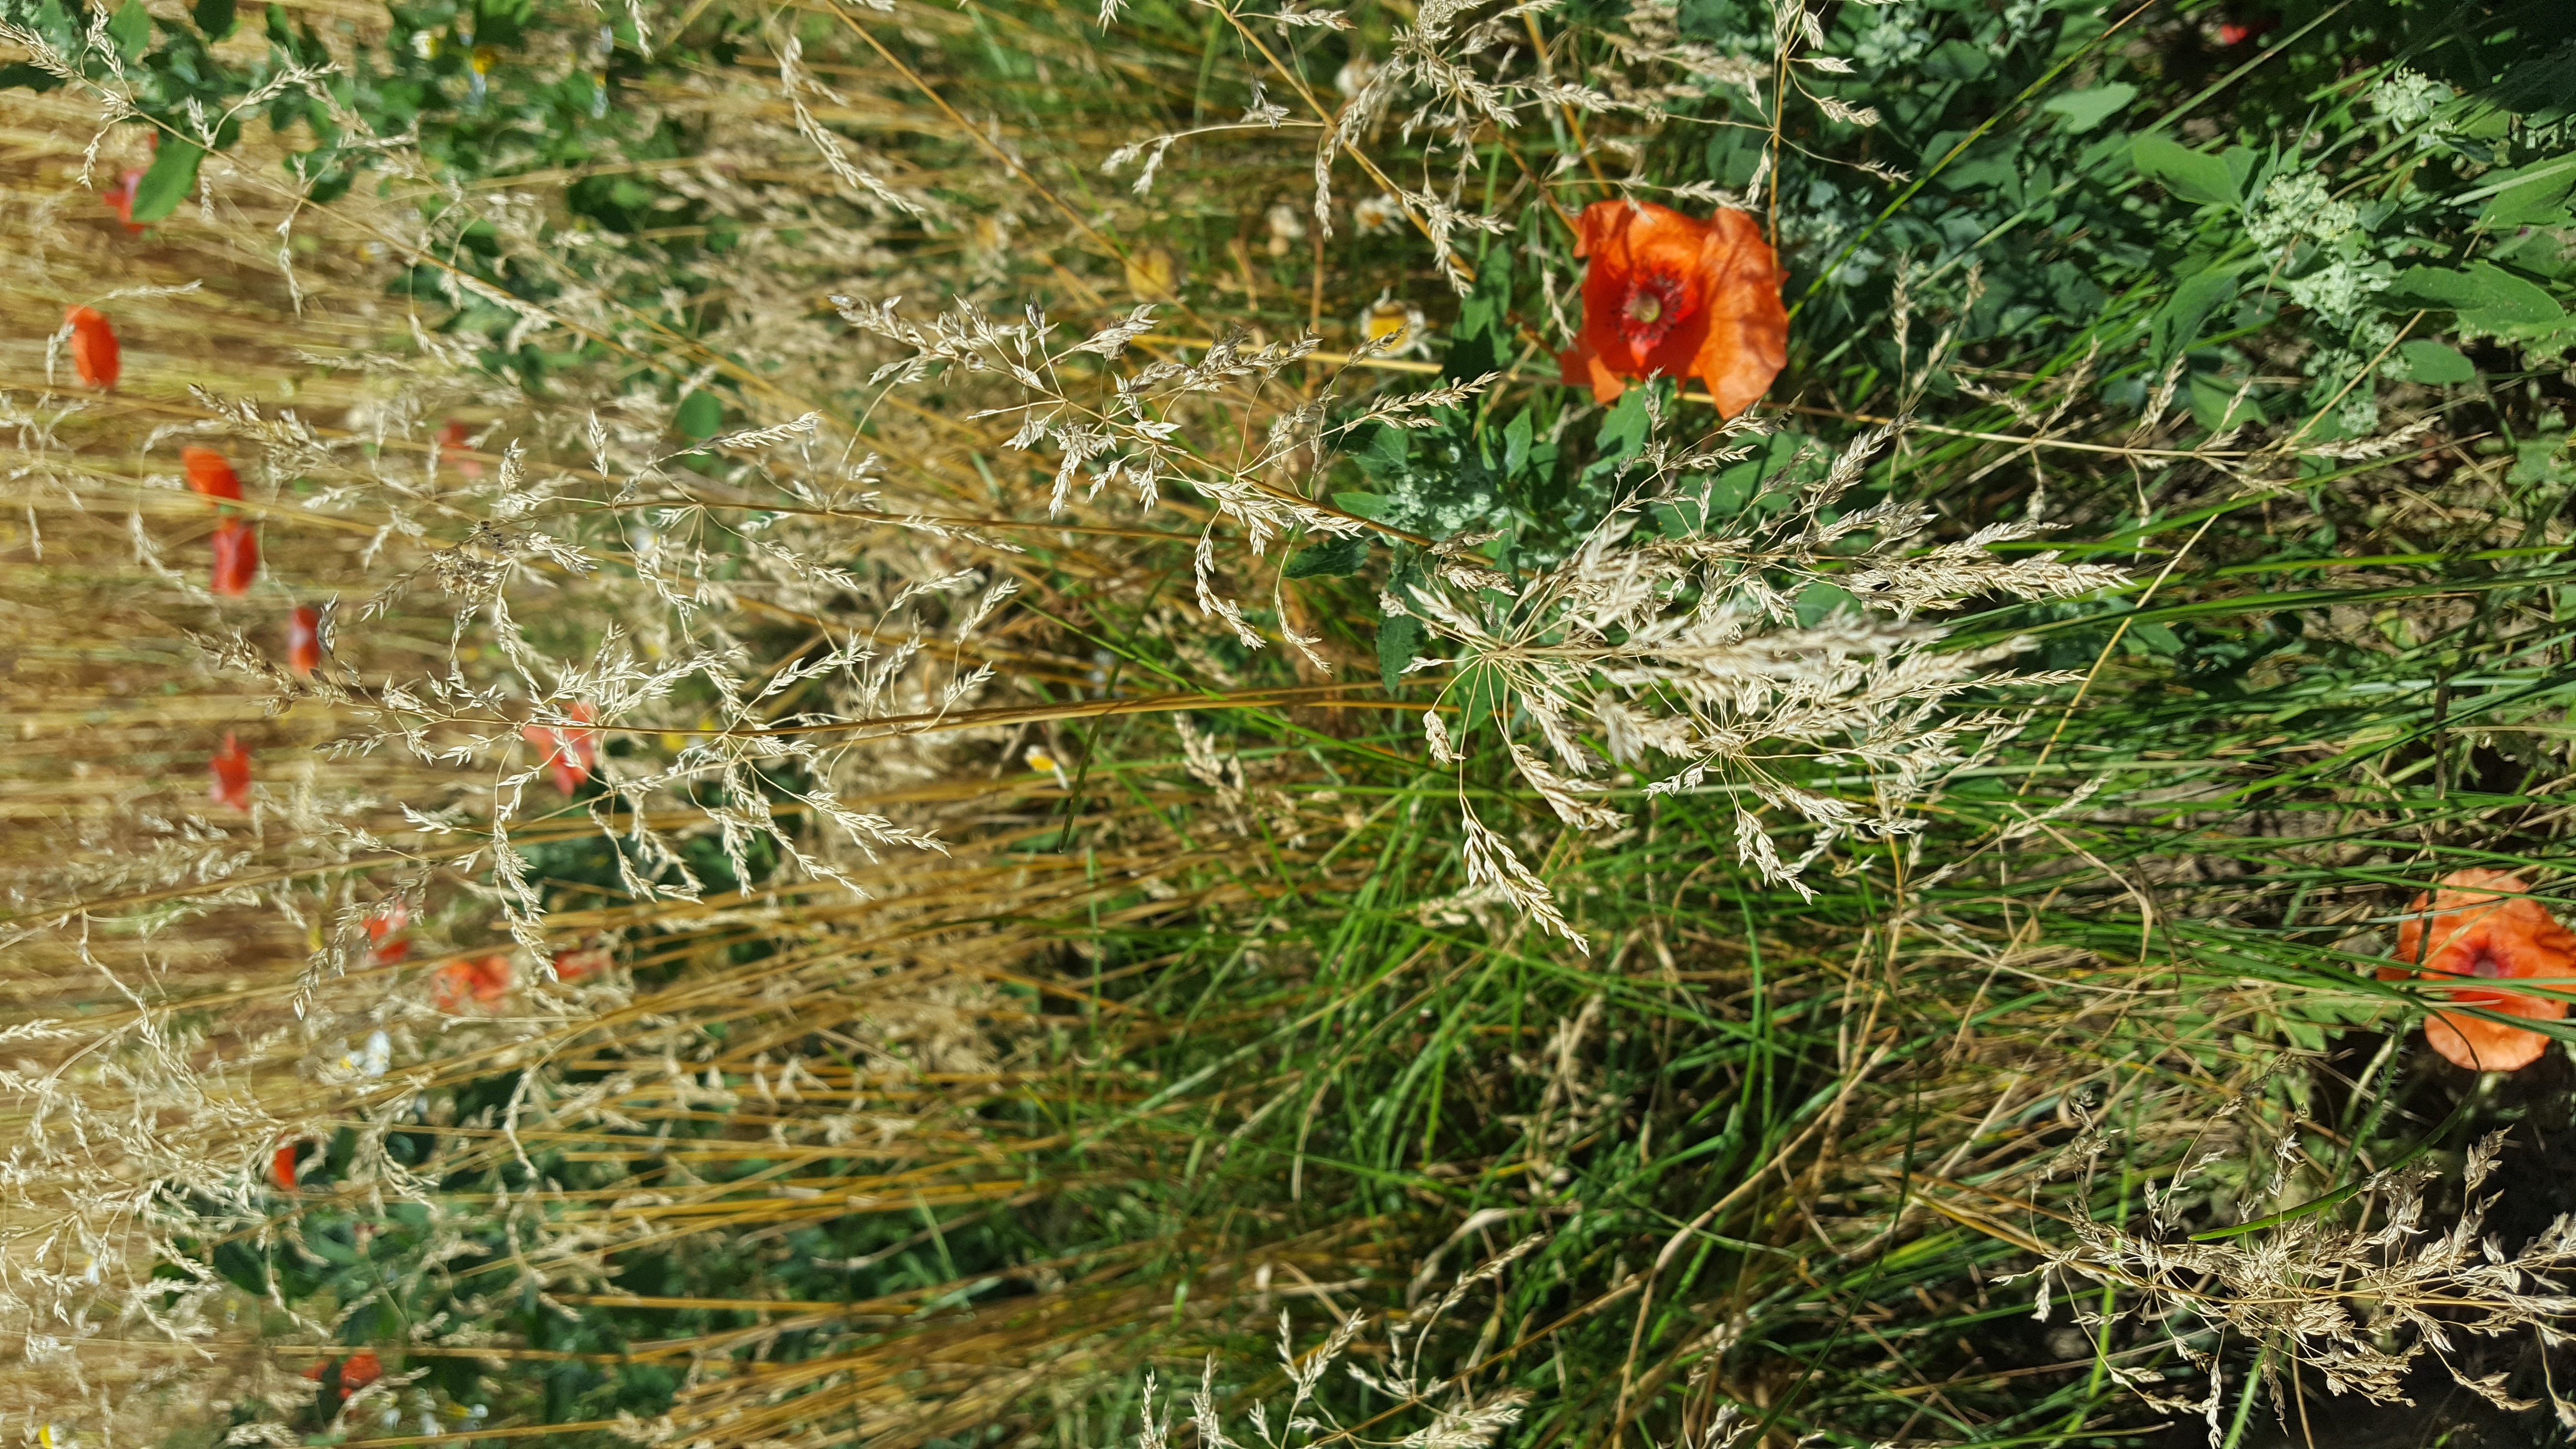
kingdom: Plantae
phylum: Tracheophyta
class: Liliopsida
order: Poales
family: Poaceae
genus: Poa
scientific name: Poa pratensis
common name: Kentucky bluegrass
